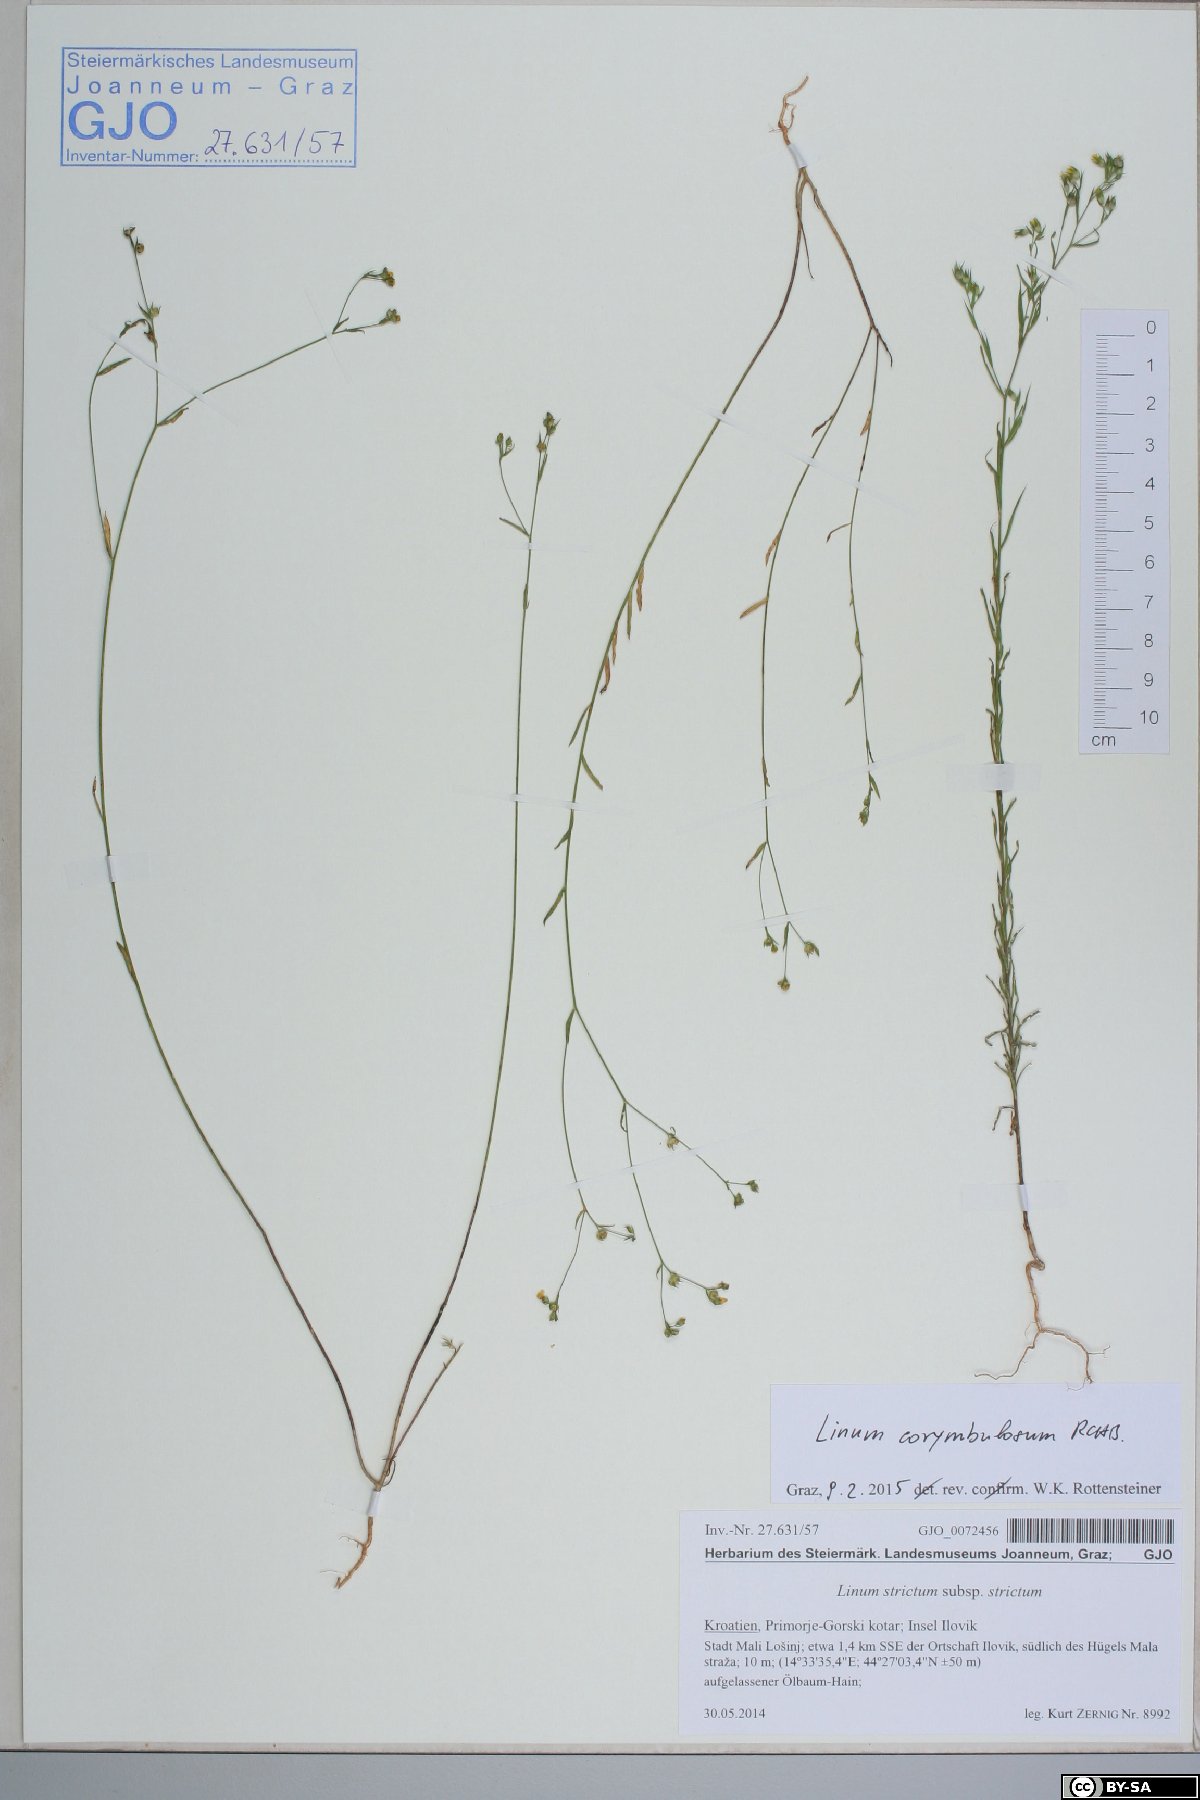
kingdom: Plantae
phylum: Tracheophyta
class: Magnoliopsida
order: Malpighiales
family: Linaceae
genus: Linum
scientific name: Linum corymbulosum
